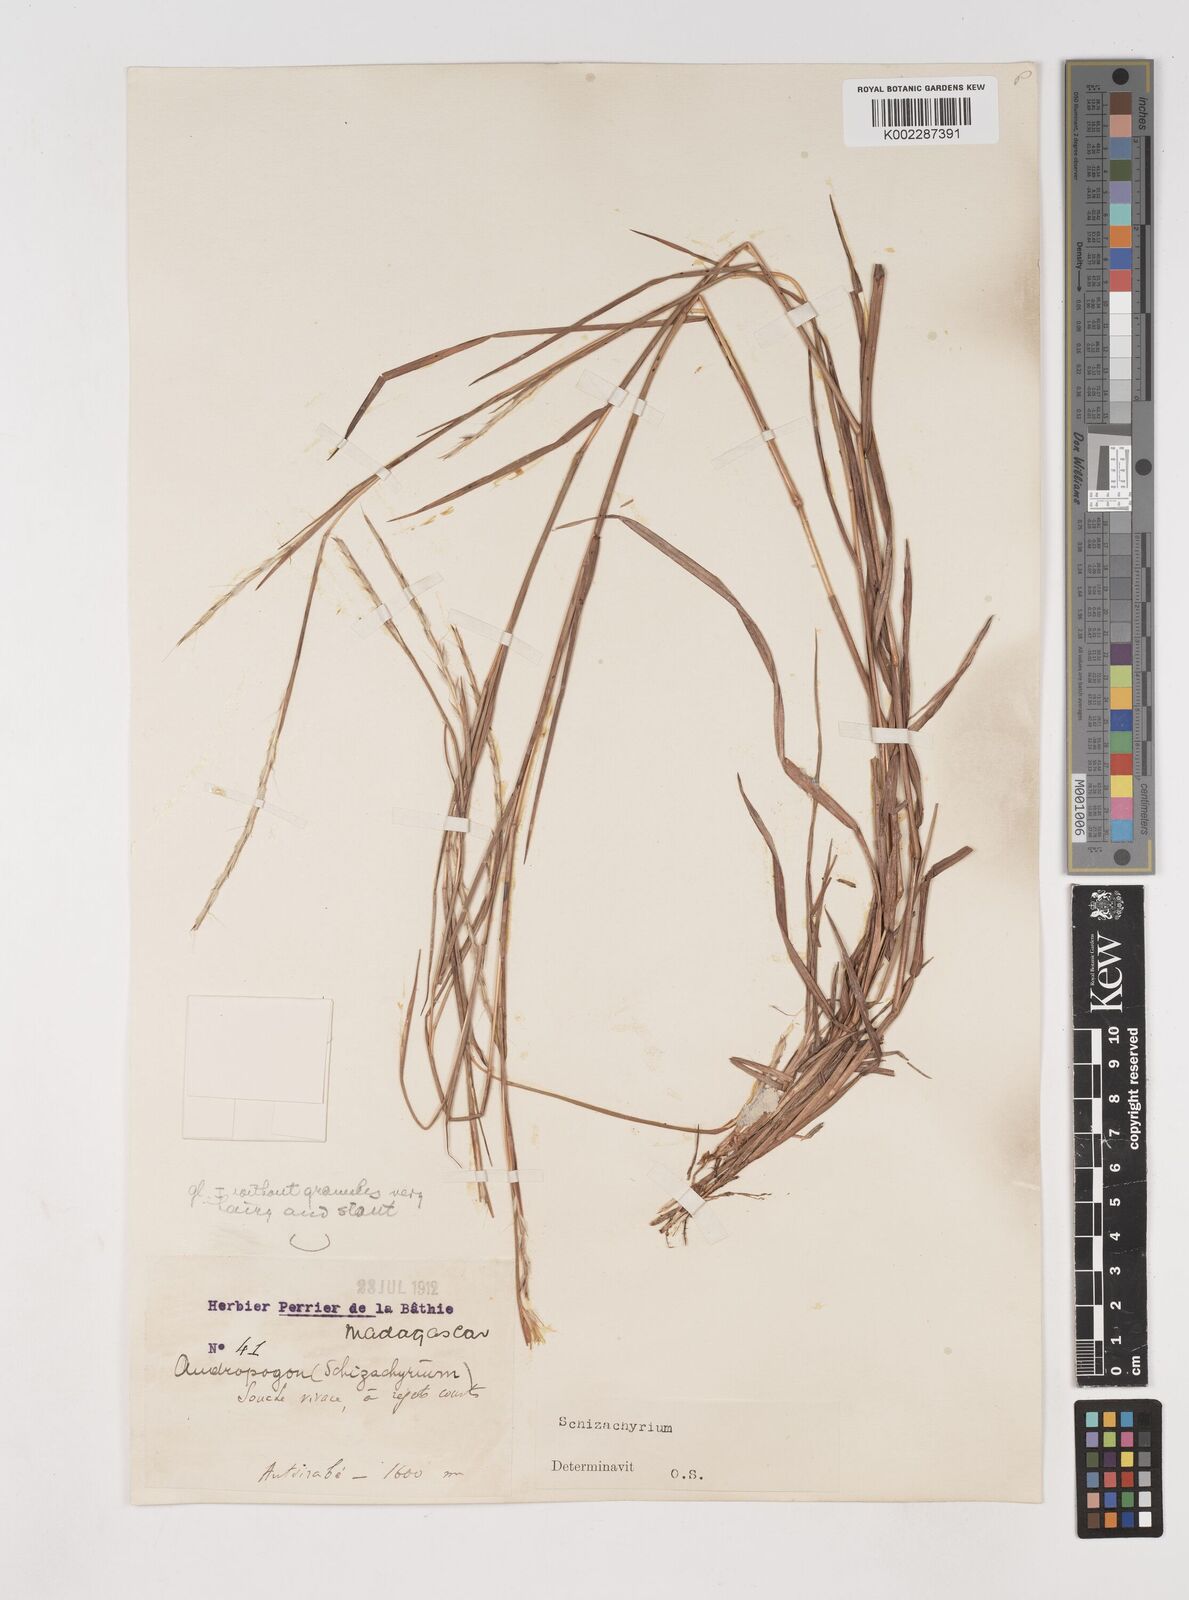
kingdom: Plantae
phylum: Tracheophyta
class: Liliopsida
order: Poales
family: Poaceae
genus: Schizachyrium
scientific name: Schizachyrium sanguineum
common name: Crimson bluestem
